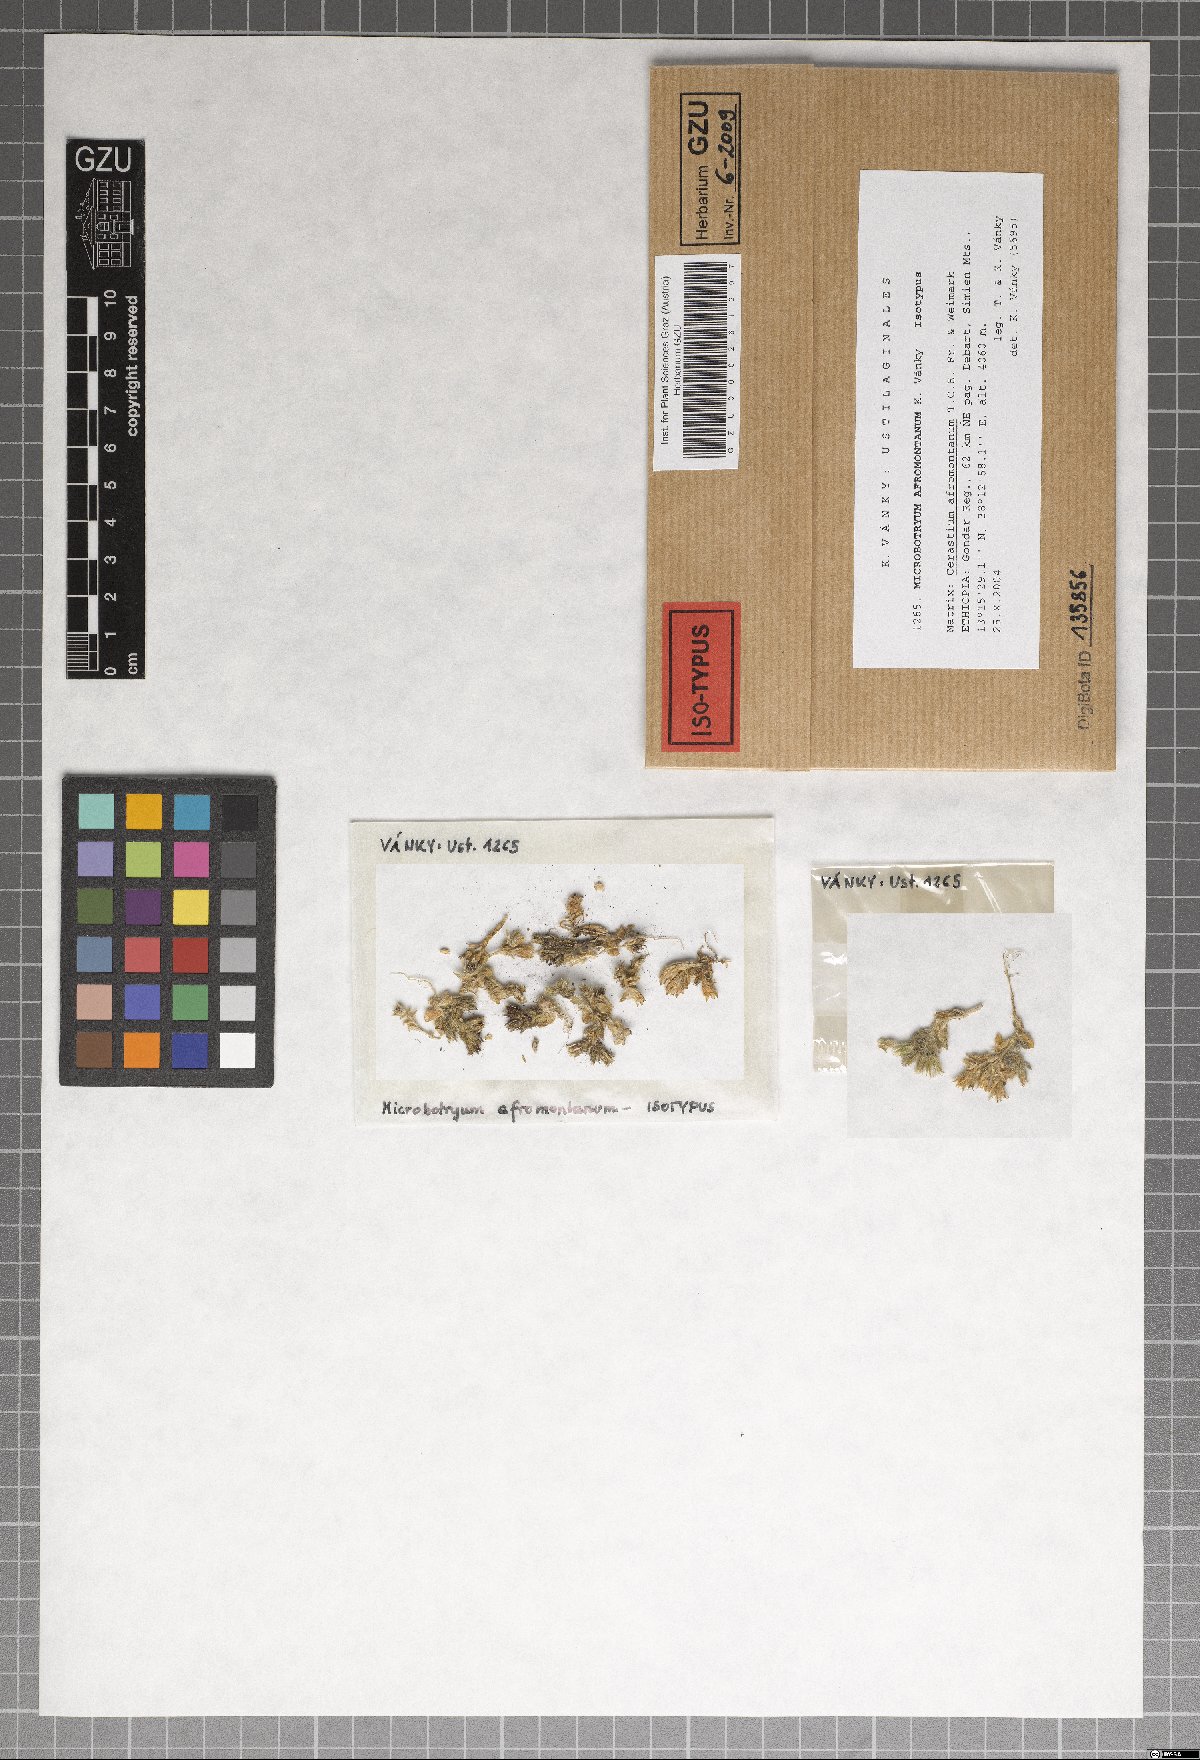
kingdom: Fungi
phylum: Basidiomycota
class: Microbotryomycetes
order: Microbotryales
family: Microbotryaceae
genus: Microbotryum
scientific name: Microbotryum afromontanum
